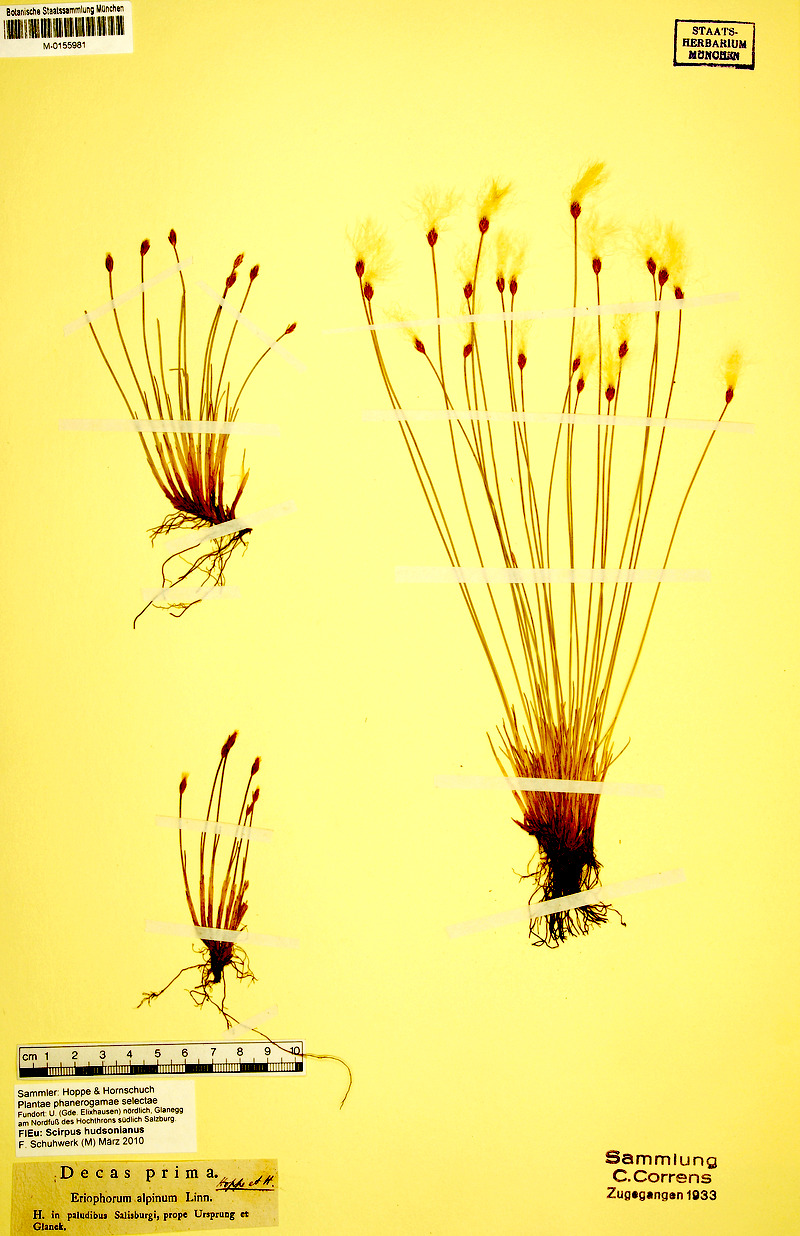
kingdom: Plantae
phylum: Tracheophyta
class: Liliopsida
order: Poales
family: Cyperaceae
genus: Trichophorum
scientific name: Trichophorum alpinum
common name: Alpine bulrush
